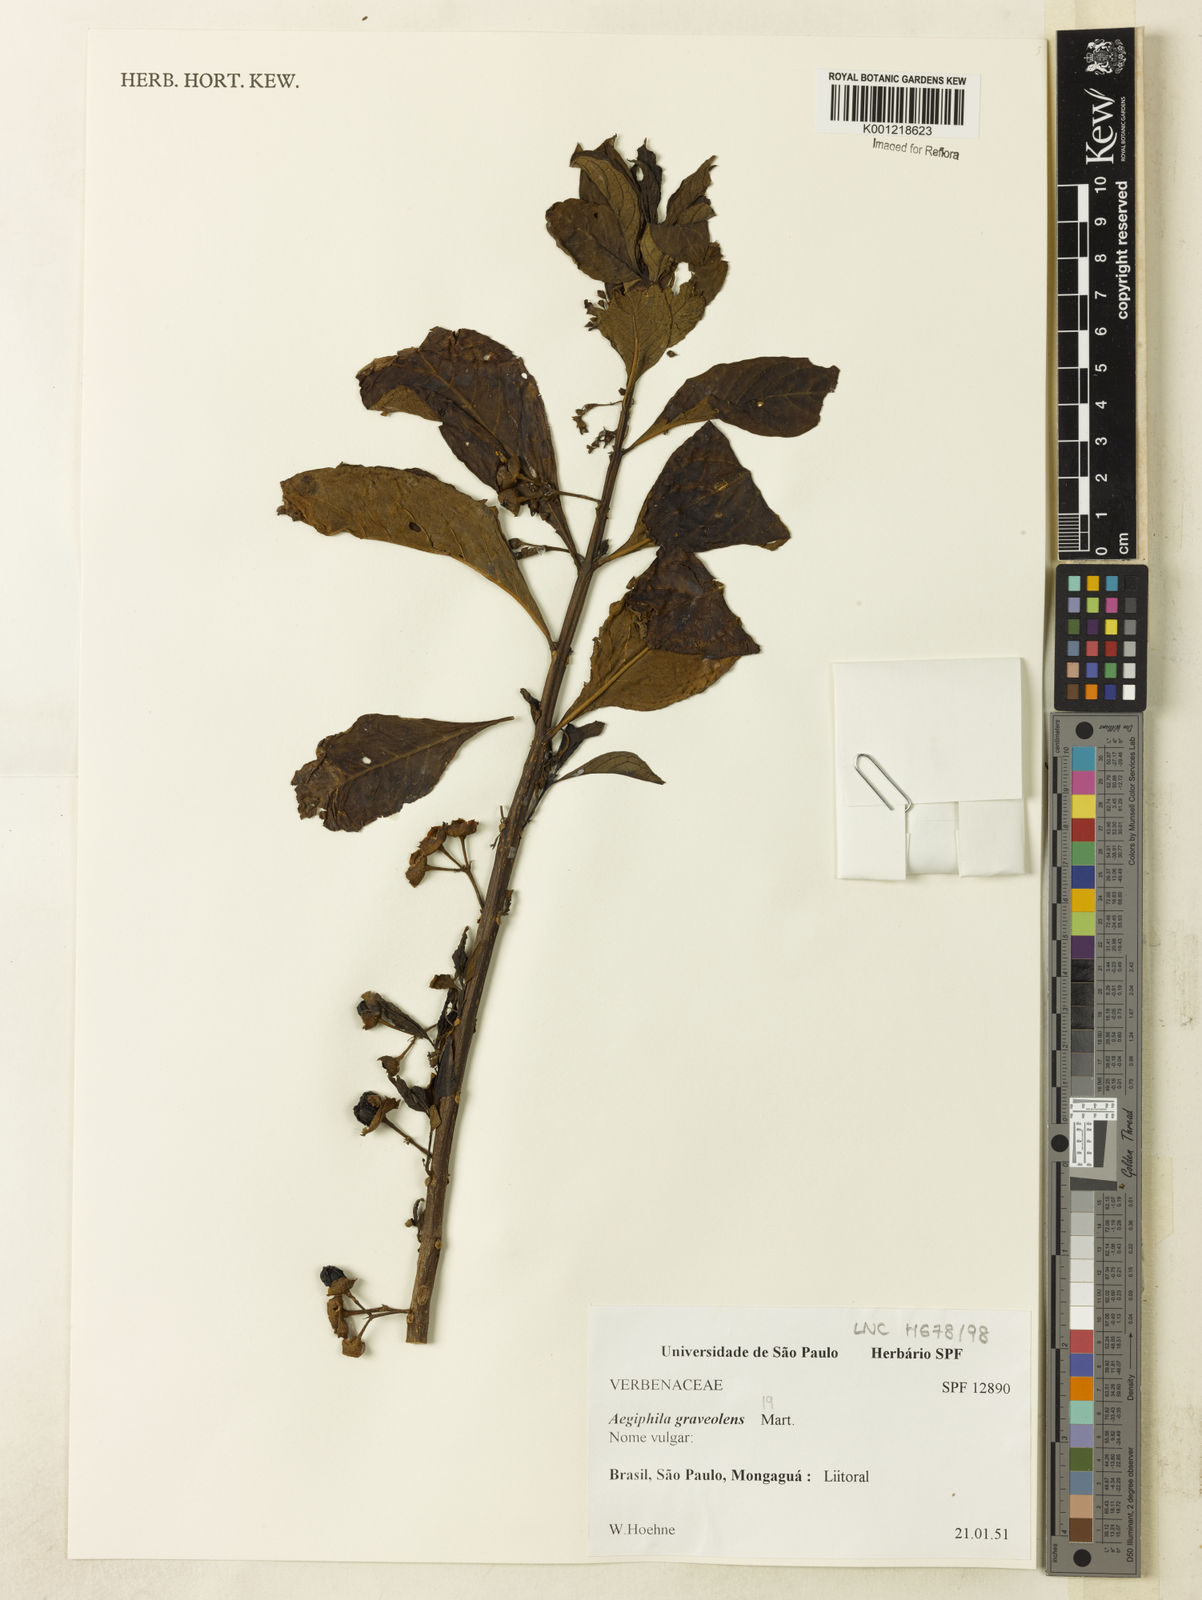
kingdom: Plantae
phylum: Tracheophyta
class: Magnoliopsida
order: Lamiales
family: Lamiaceae
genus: Aegiphila
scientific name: Aegiphila graveolens
